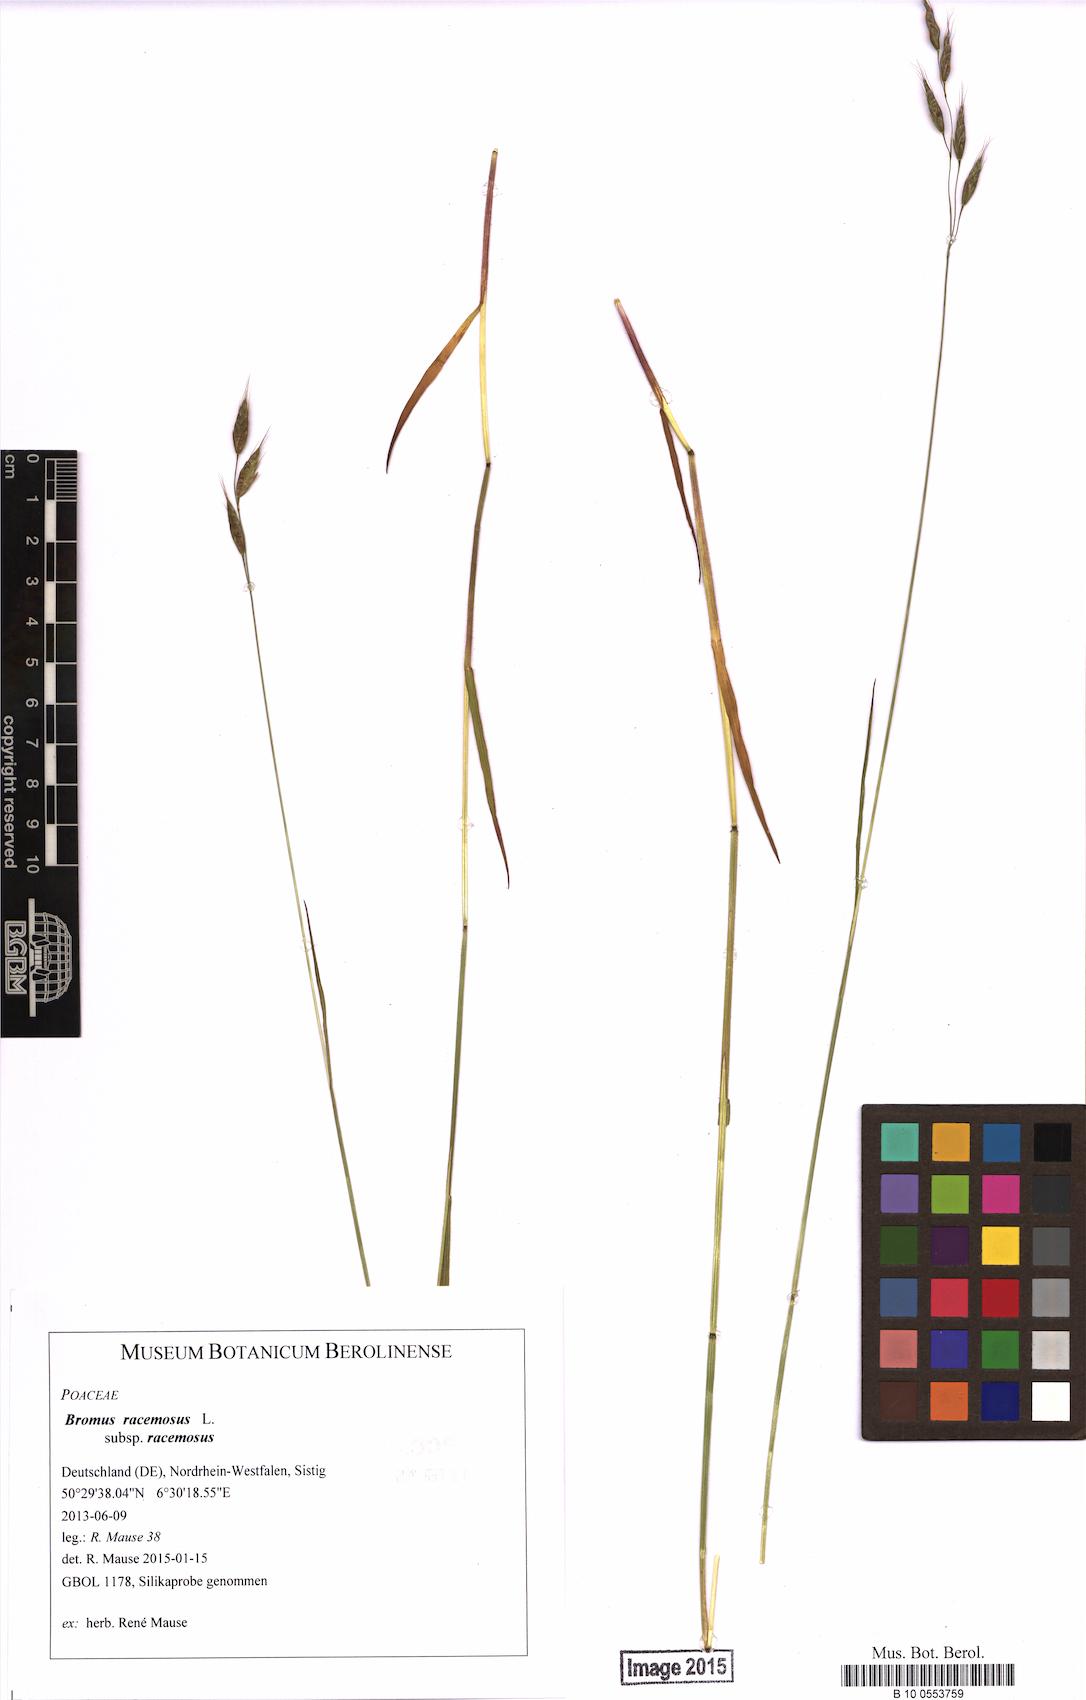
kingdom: Plantae
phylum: Tracheophyta
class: Liliopsida
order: Poales
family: Poaceae
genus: Bromus
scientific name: Bromus racemosus
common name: Bald brome
